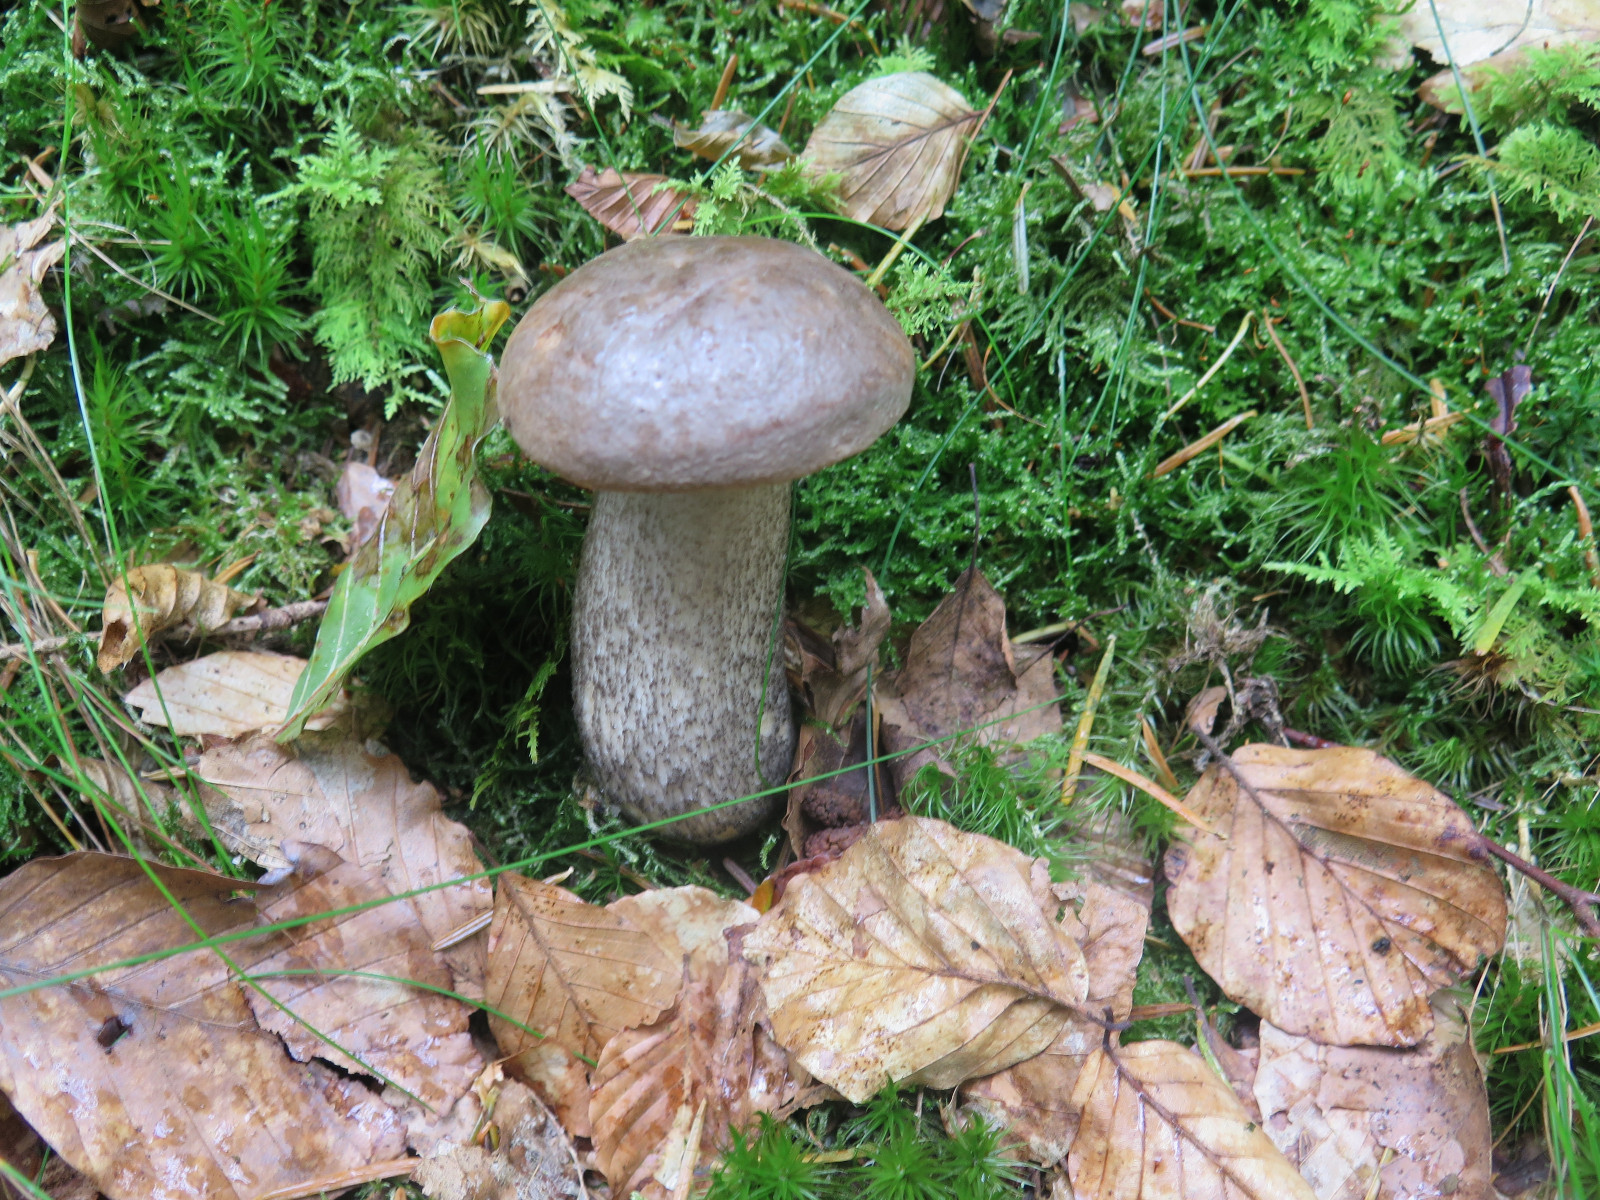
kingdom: Fungi
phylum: Basidiomycota
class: Agaricomycetes
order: Boletales
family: Boletaceae
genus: Leccinum
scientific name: Leccinum scabrum
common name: brun skælrørhat
